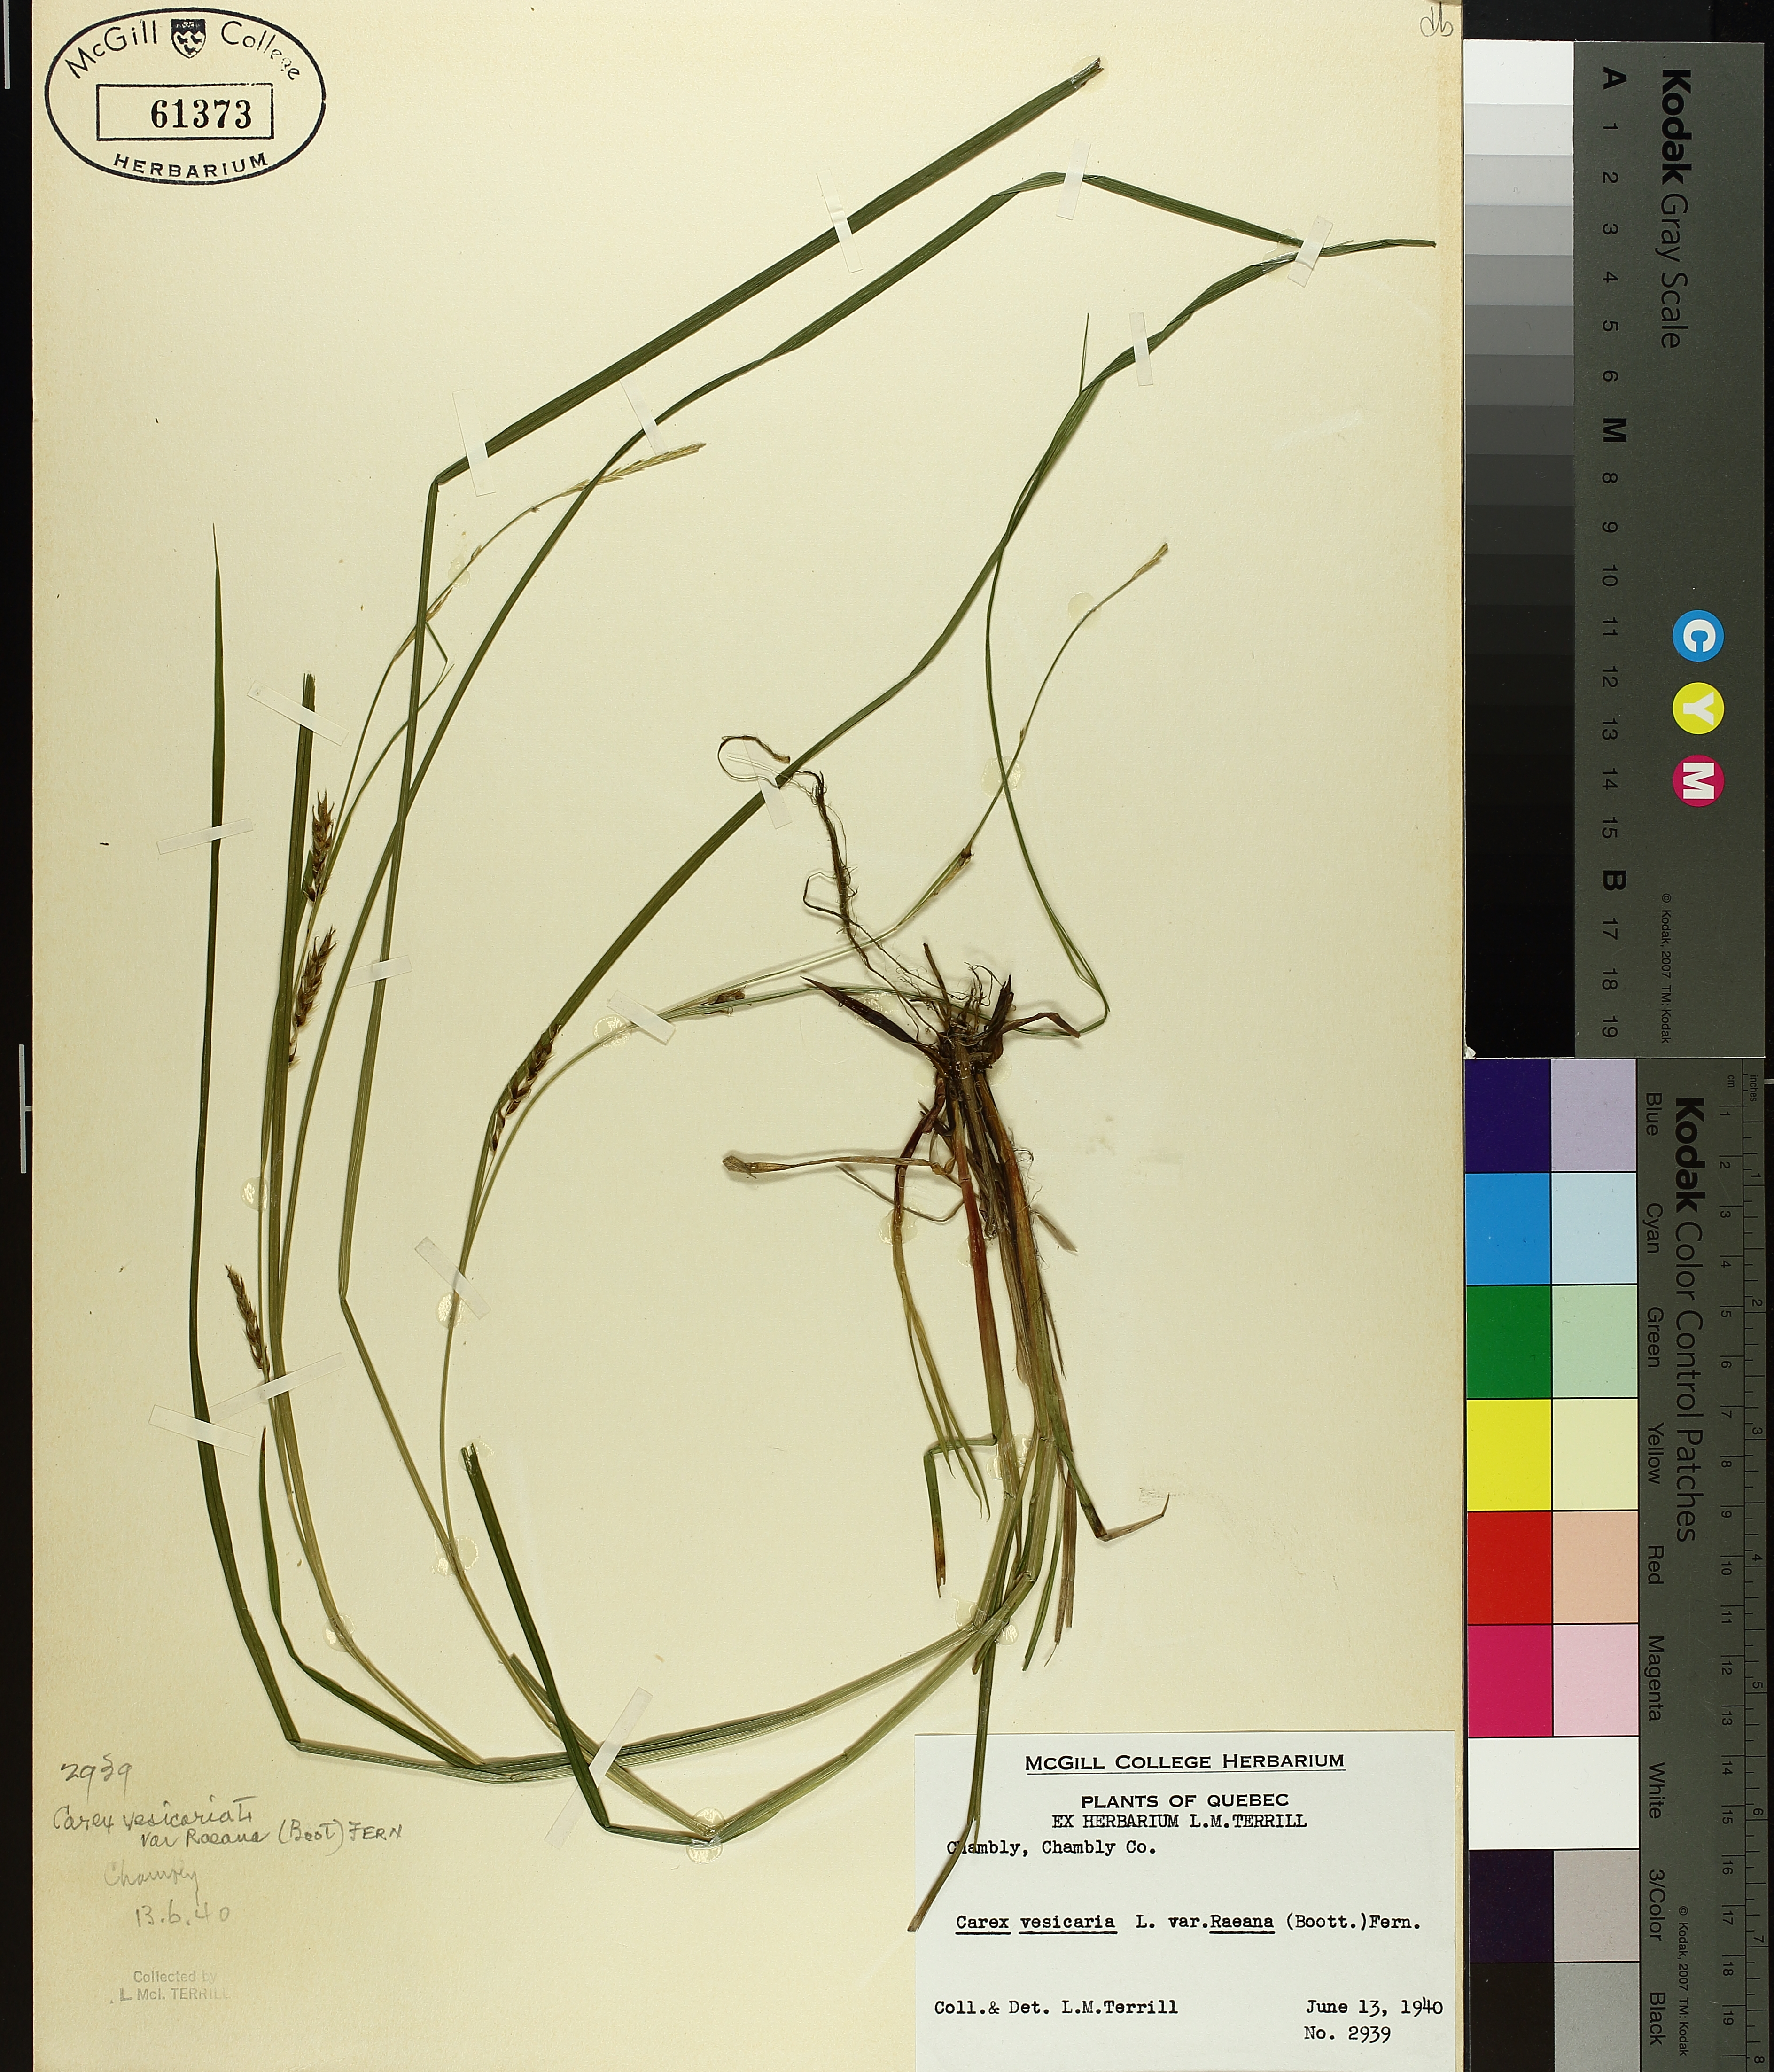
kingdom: Plantae
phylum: Tracheophyta
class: Liliopsida
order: Poales
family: Cyperaceae
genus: Carex
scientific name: Carex vesicaria
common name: Bladder-sedge
